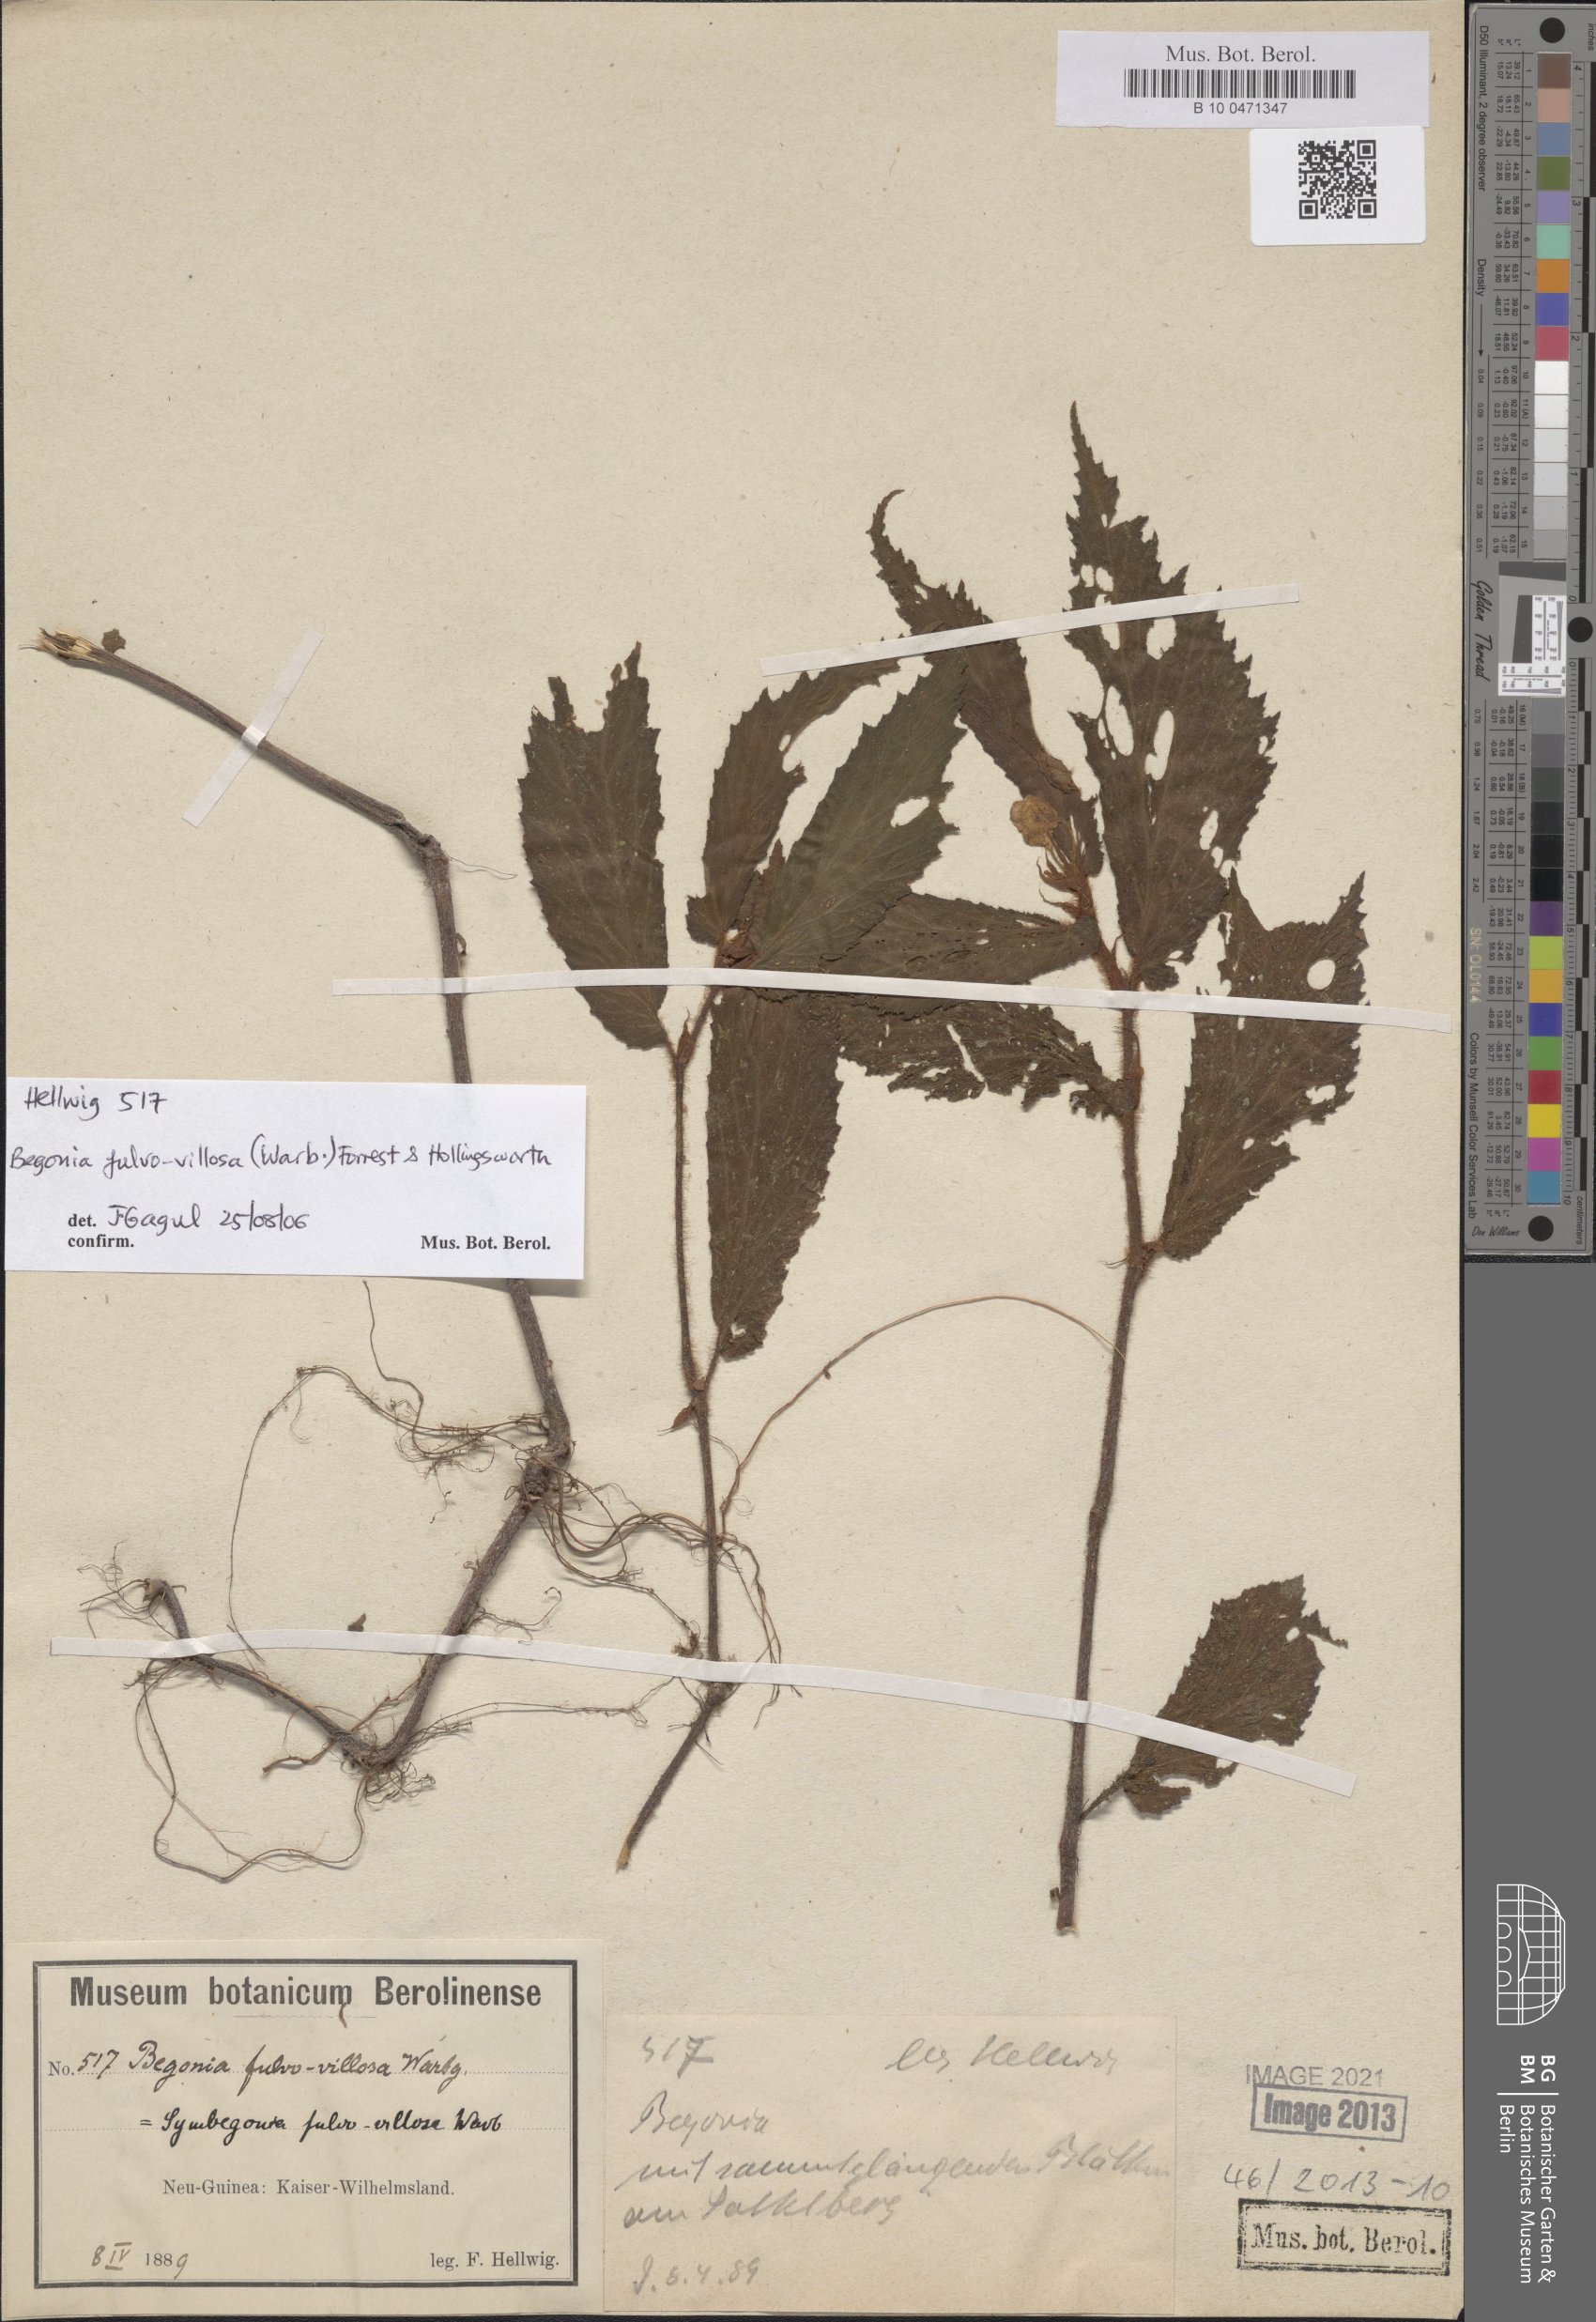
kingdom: Plantae
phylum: Tracheophyta
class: Magnoliopsida
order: Cucurbitales
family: Begoniaceae
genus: Begonia
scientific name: Begonia fulvovillosa
